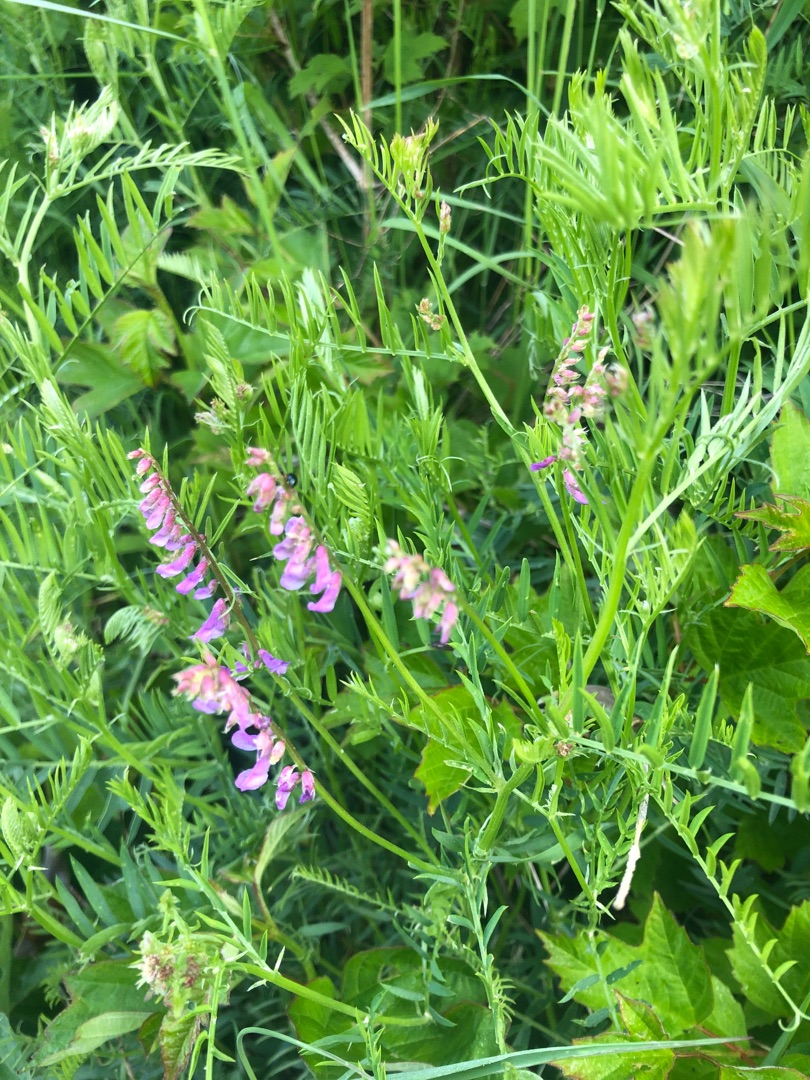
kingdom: Plantae
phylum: Tracheophyta
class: Magnoliopsida
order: Fabales
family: Fabaceae
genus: Vicia
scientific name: Vicia cracca
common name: Muse-vikke
